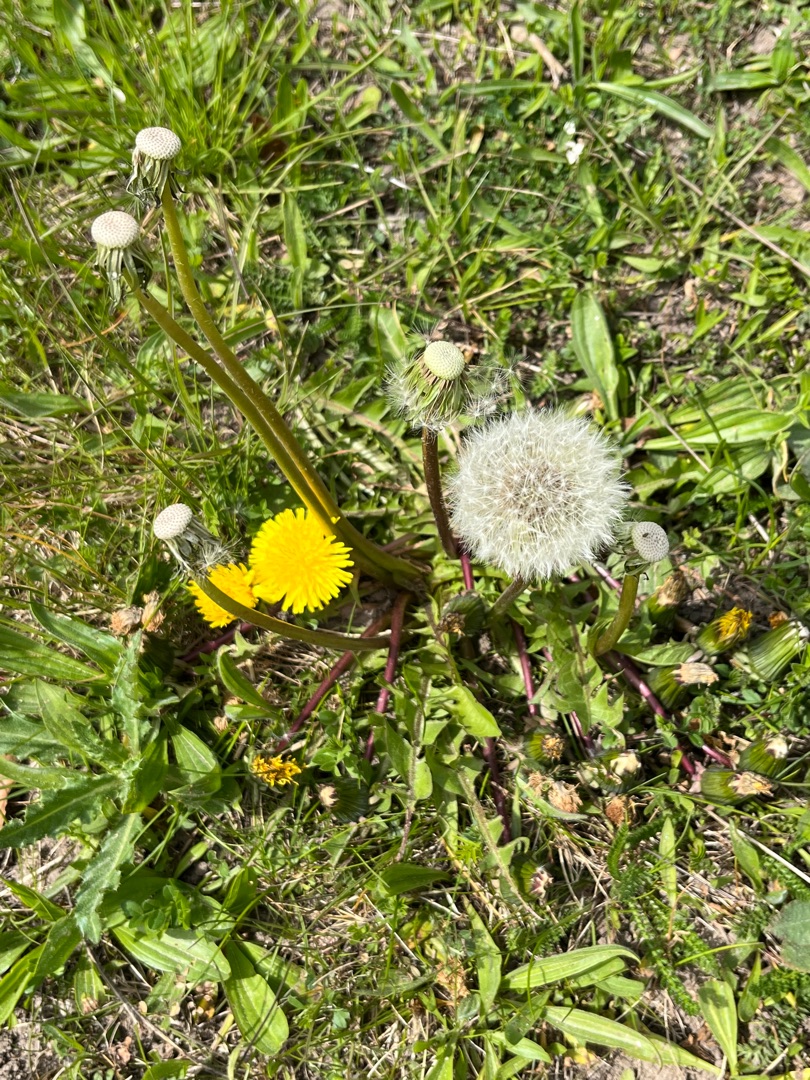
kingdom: Plantae
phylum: Tracheophyta
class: Magnoliopsida
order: Asterales
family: Asteraceae
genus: Taraxacum
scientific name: Taraxacum
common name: Mælkebøtteslægten
